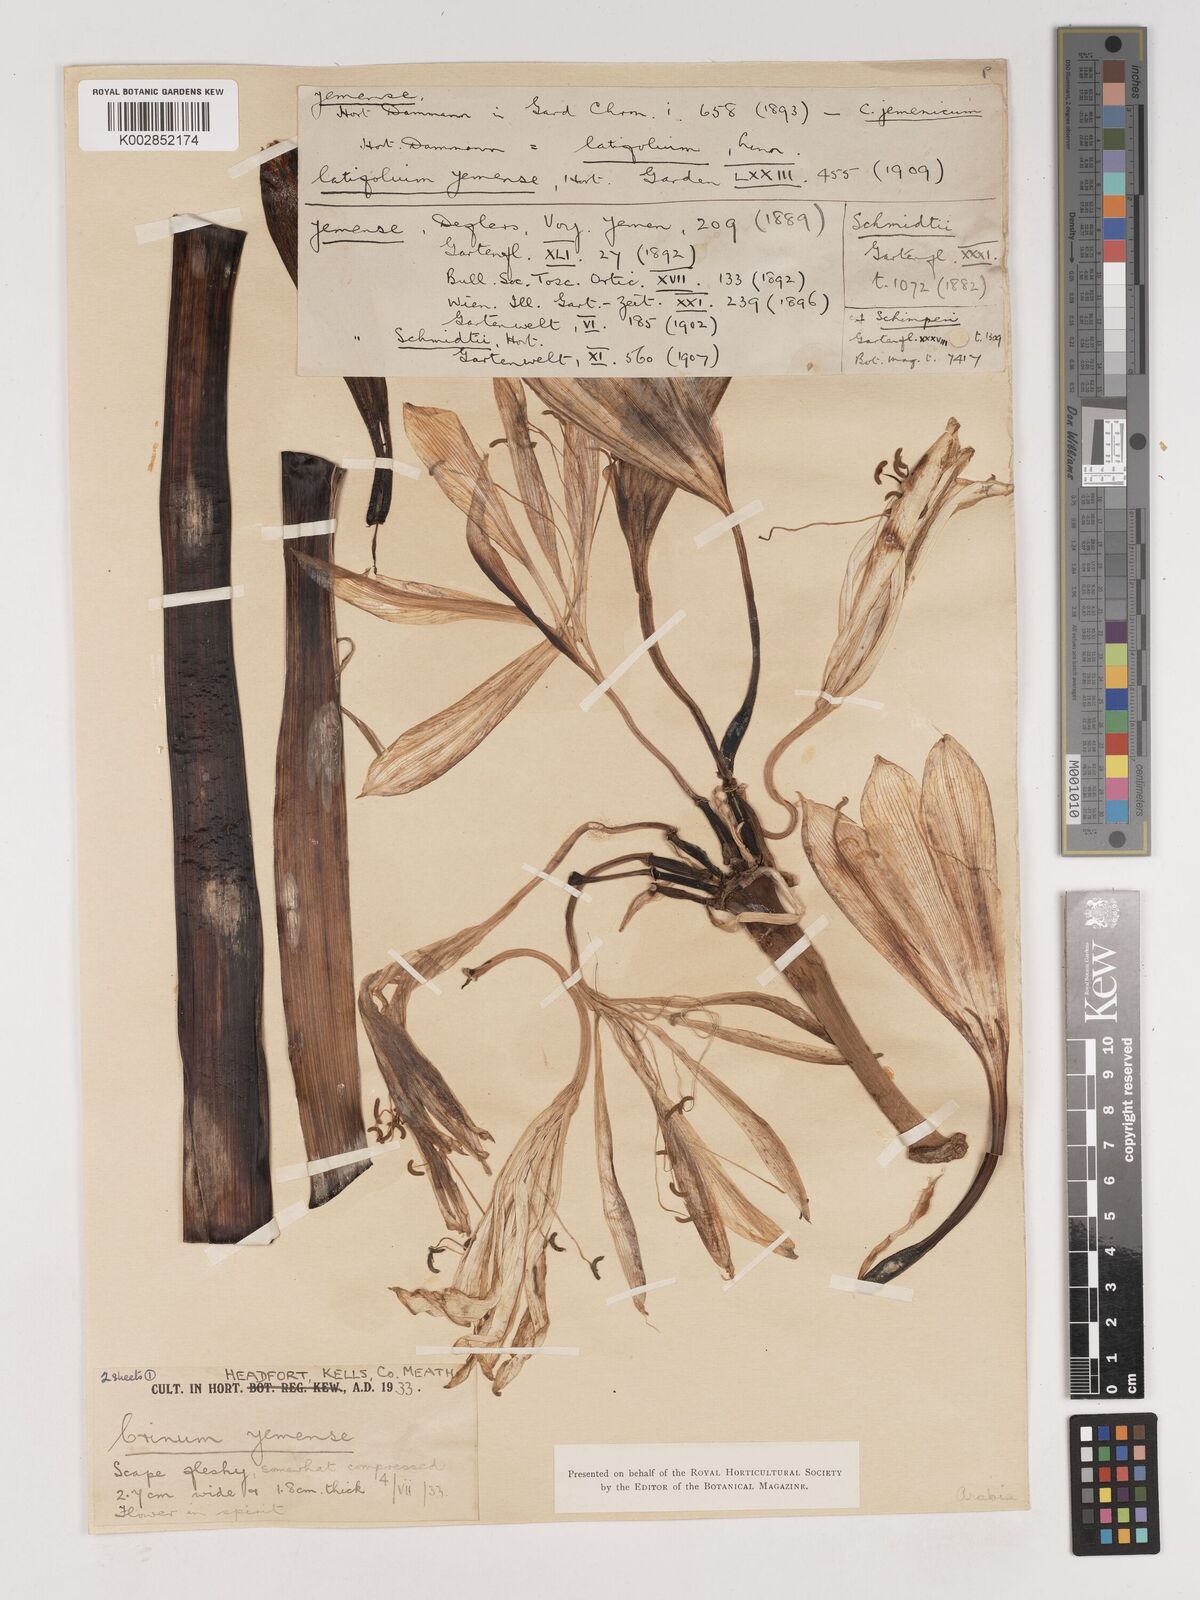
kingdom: Plantae
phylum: Tracheophyta
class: Liliopsida
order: Asparagales
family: Amaryllidaceae
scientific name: Amaryllidaceae
